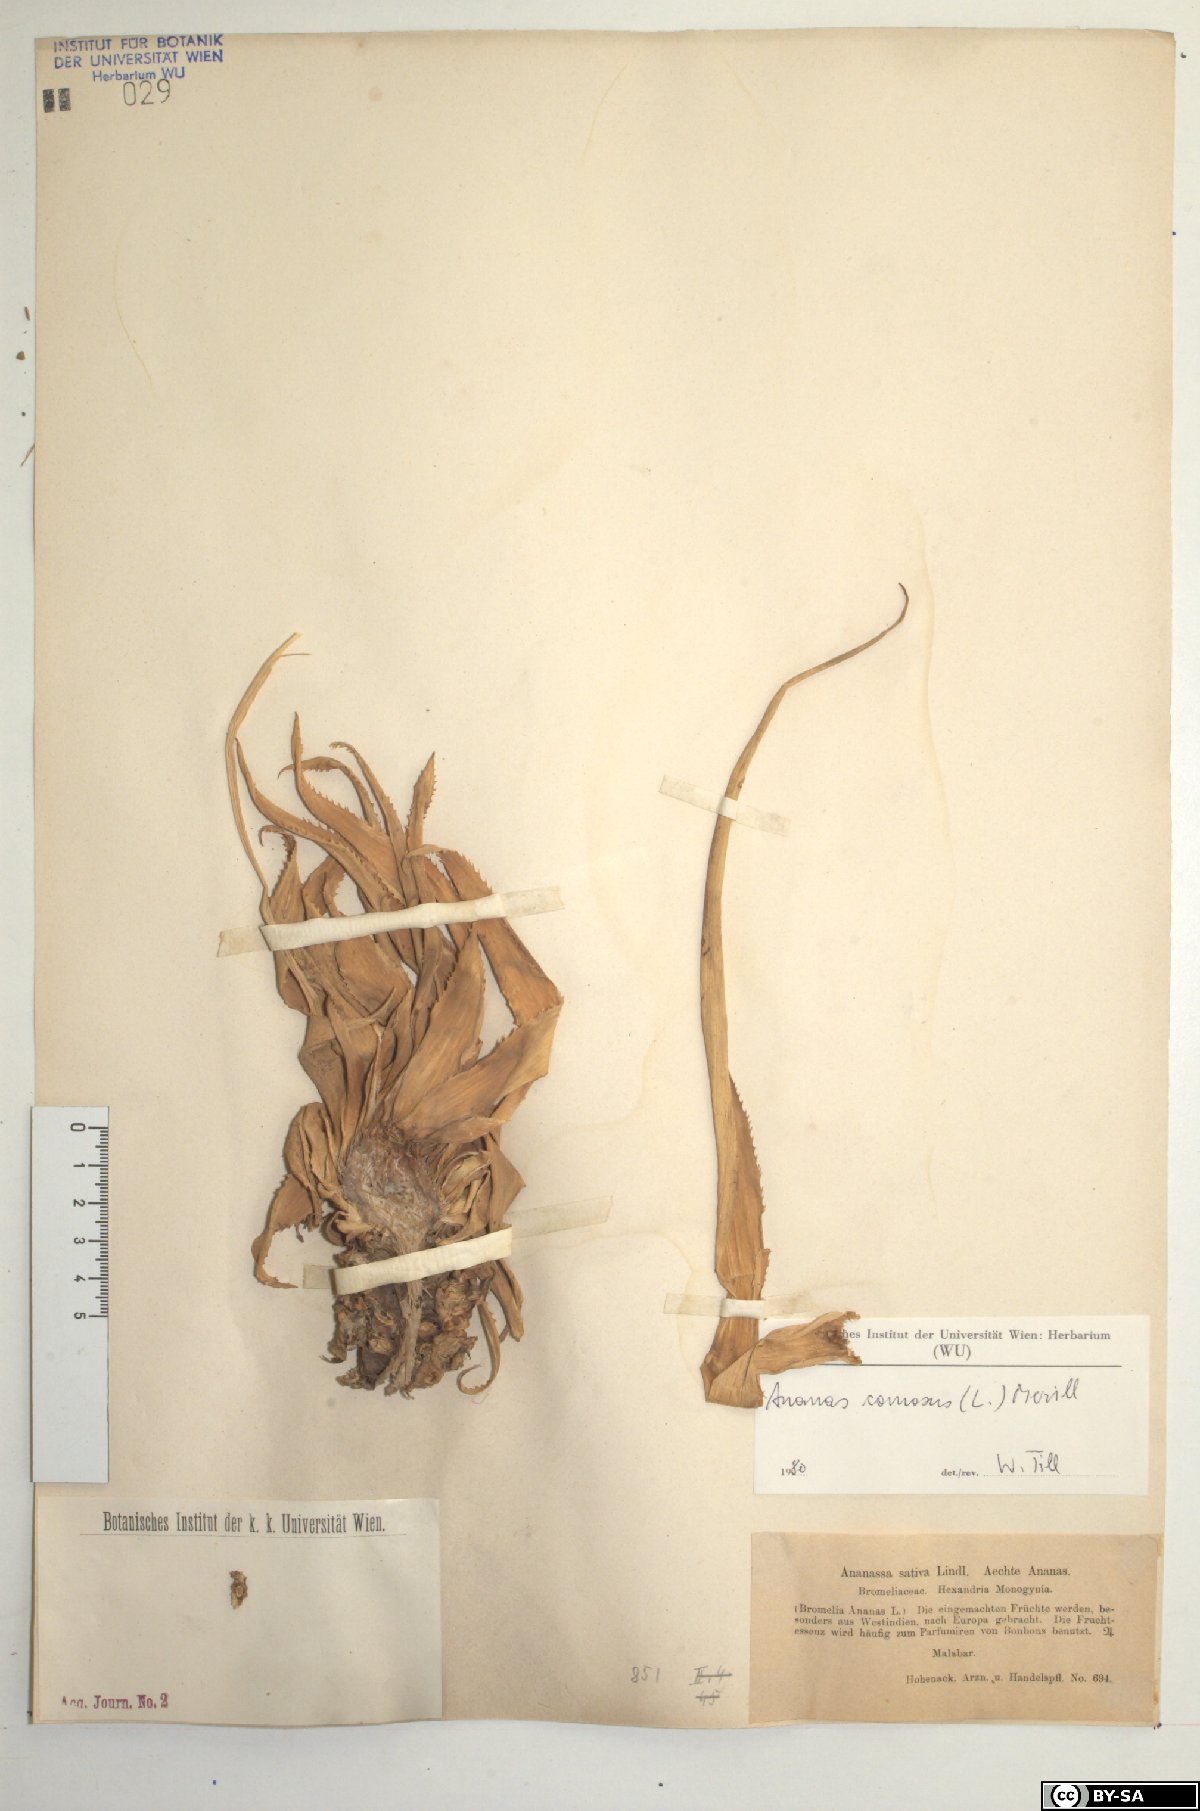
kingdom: Plantae
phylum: Tracheophyta
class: Liliopsida
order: Poales
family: Bromeliaceae
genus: Ananas
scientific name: Ananas comosus
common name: Pineapple
